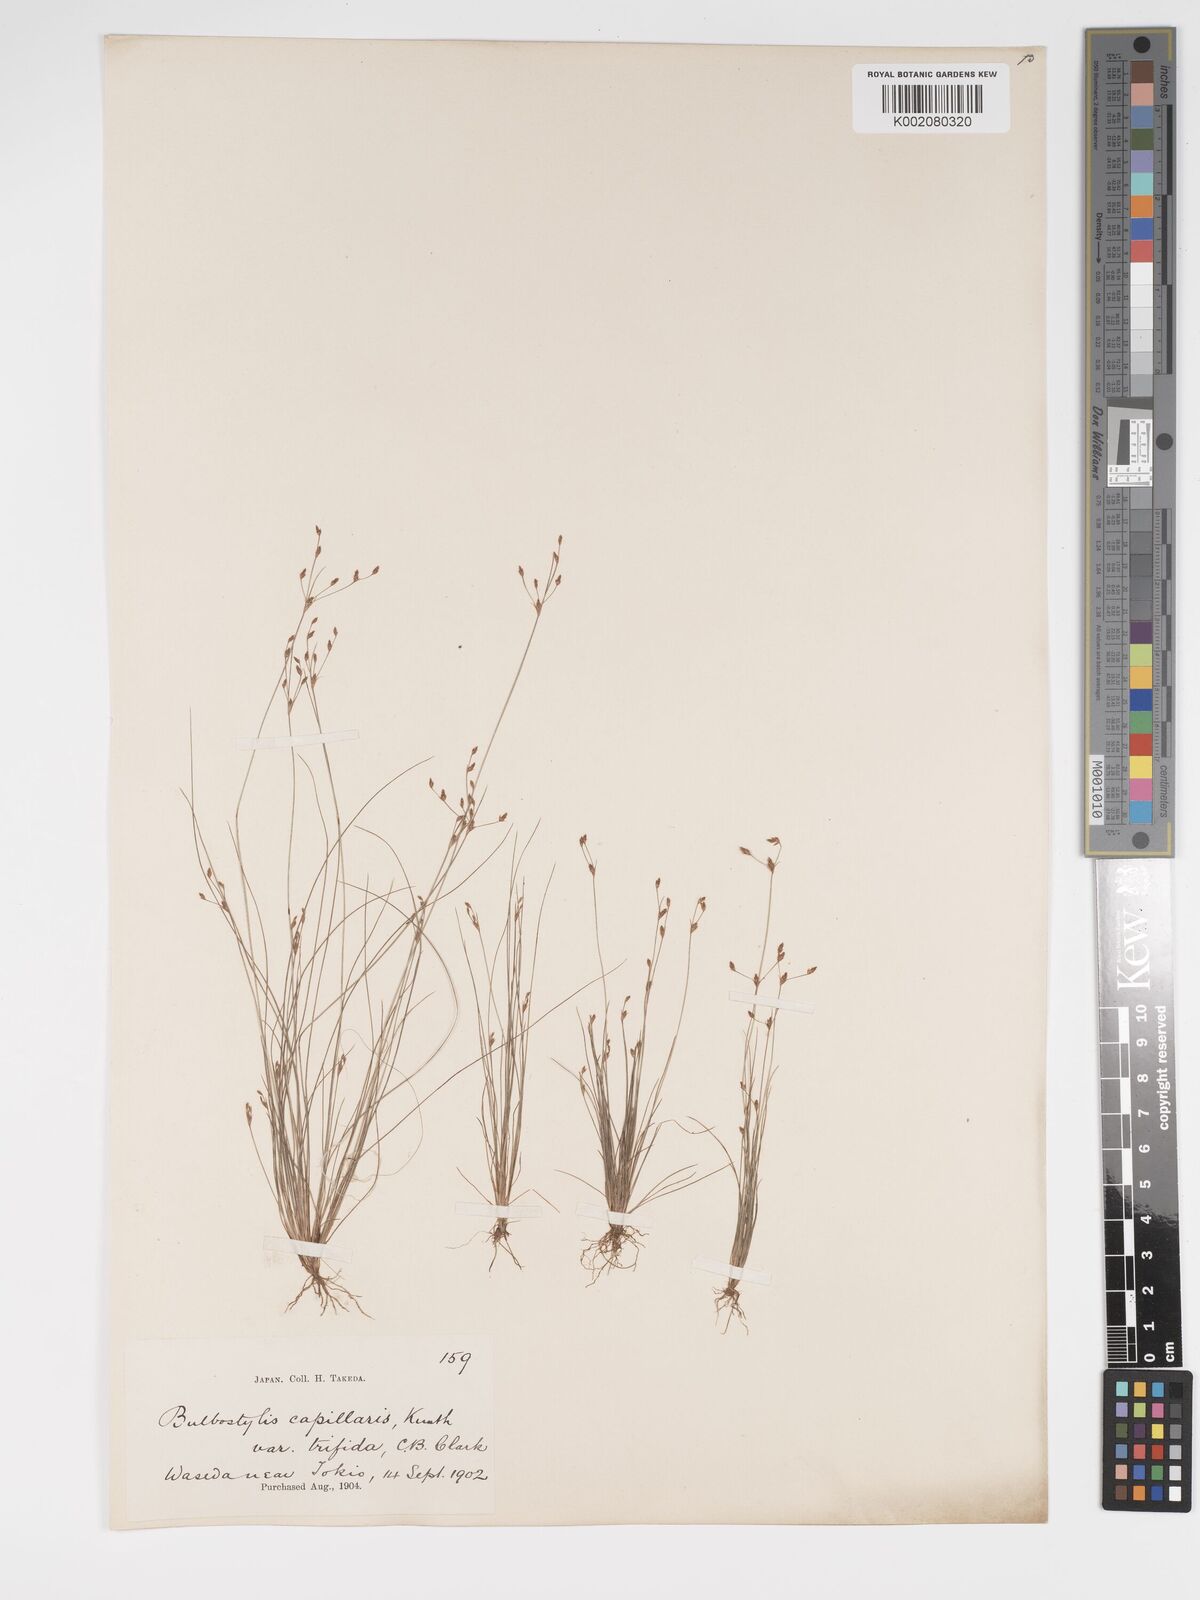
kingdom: Plantae
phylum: Tracheophyta
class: Liliopsida
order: Poales
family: Cyperaceae
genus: Bulbostylis
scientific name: Bulbostylis capillaris
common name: Densetuft hairsedge
